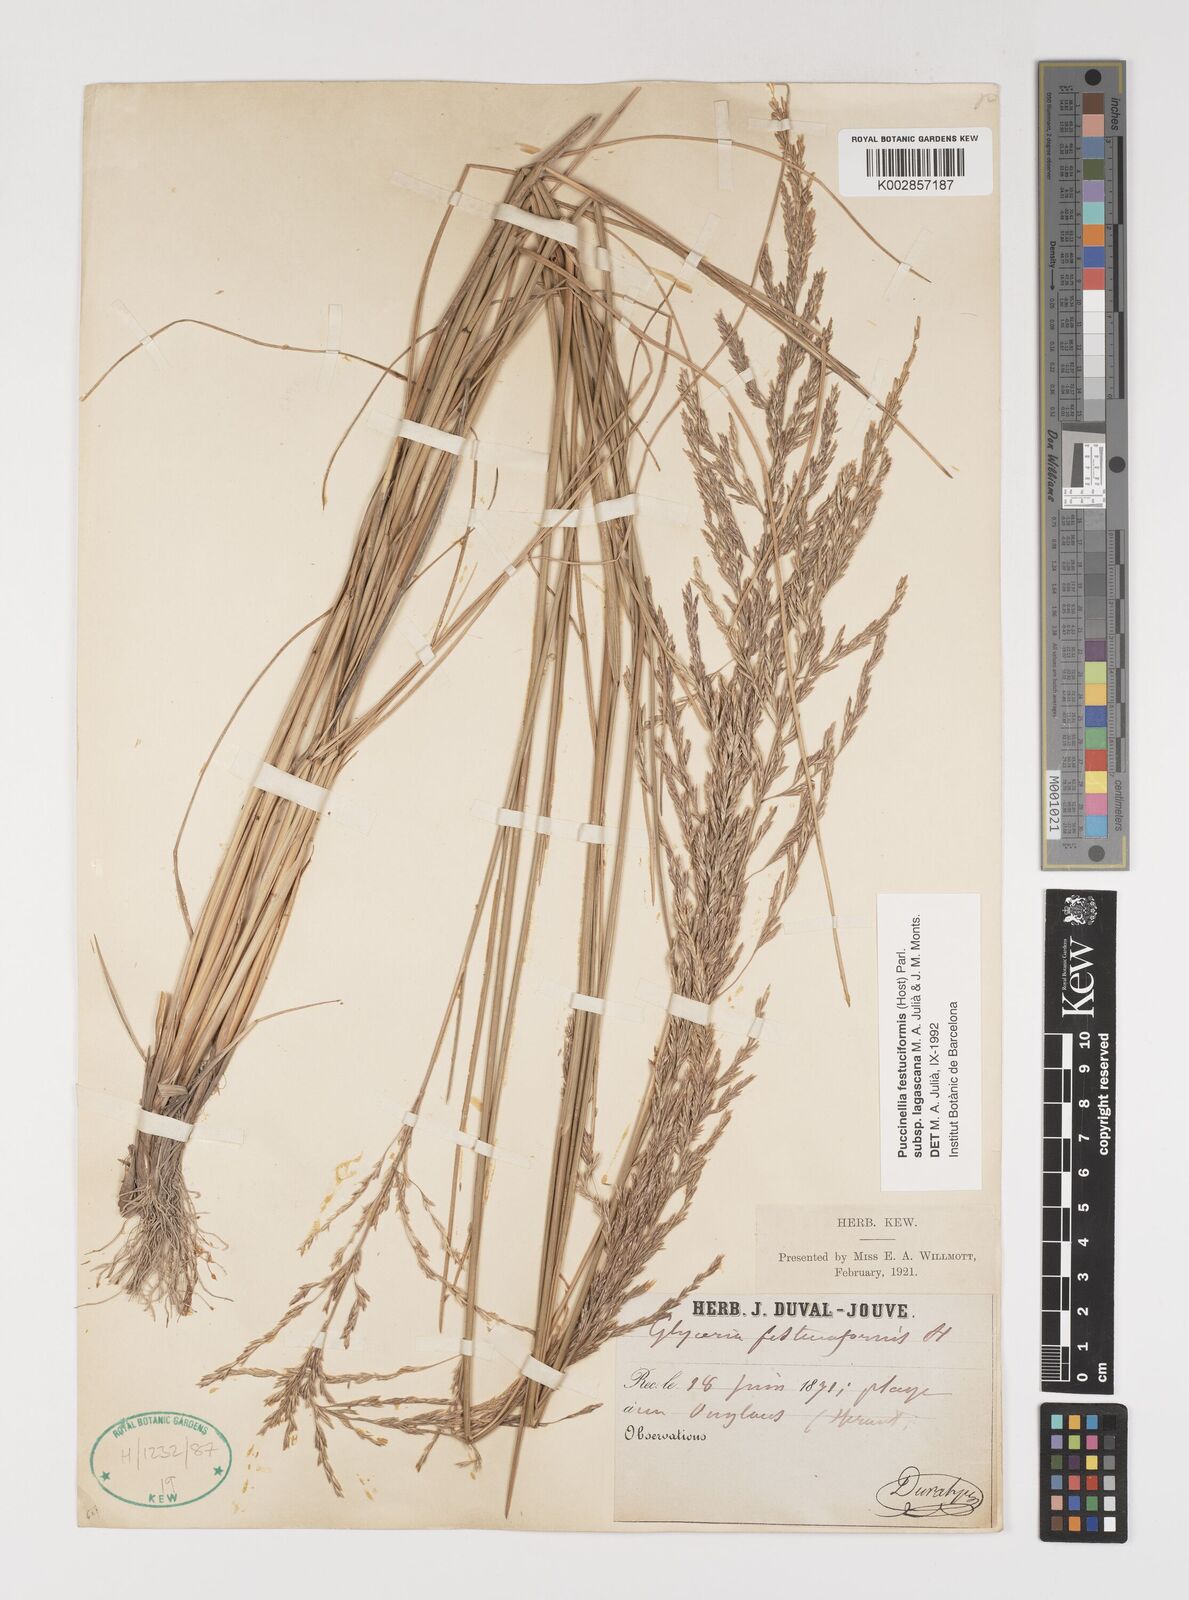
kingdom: Plantae
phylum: Tracheophyta
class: Liliopsida
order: Poales
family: Poaceae
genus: Puccinellia
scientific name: Puccinellia festuciformis
